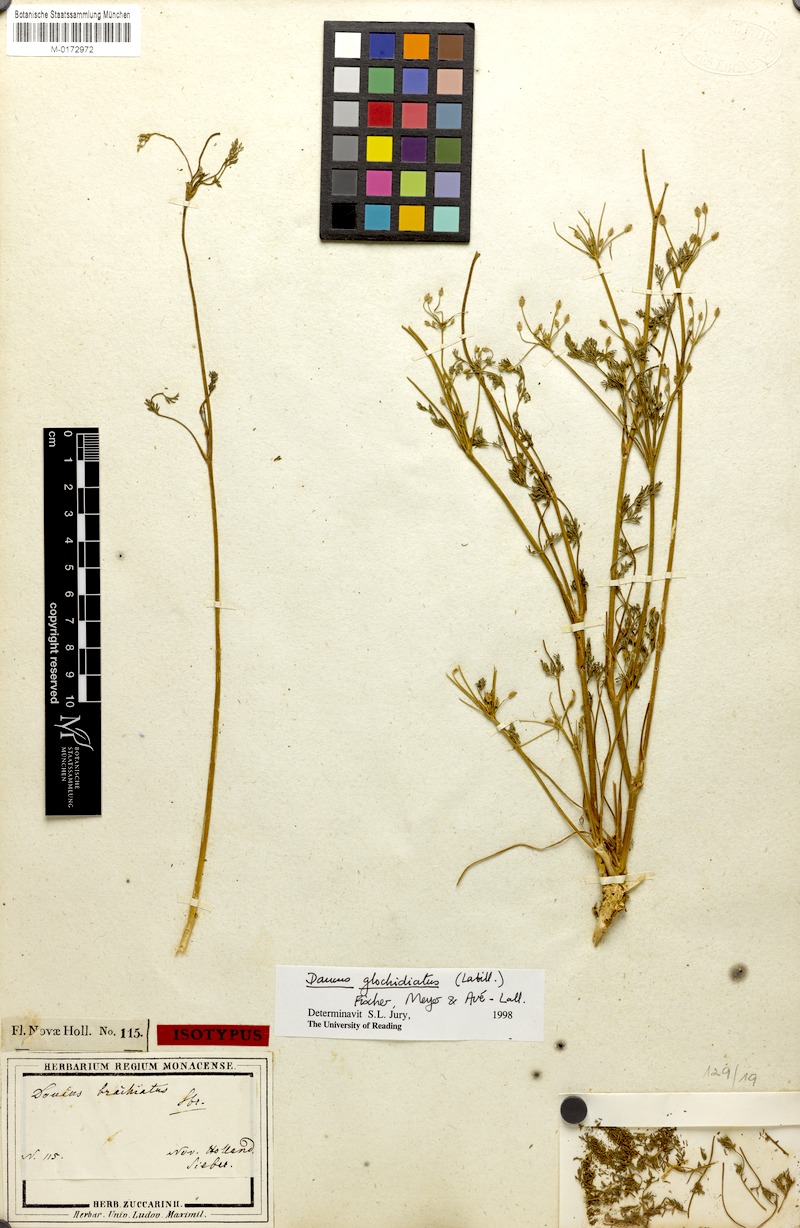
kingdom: Plantae
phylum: Tracheophyta
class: Magnoliopsida
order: Apiales
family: Apiaceae
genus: Daucus
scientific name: Daucus glochidiatus
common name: Australian carrot
